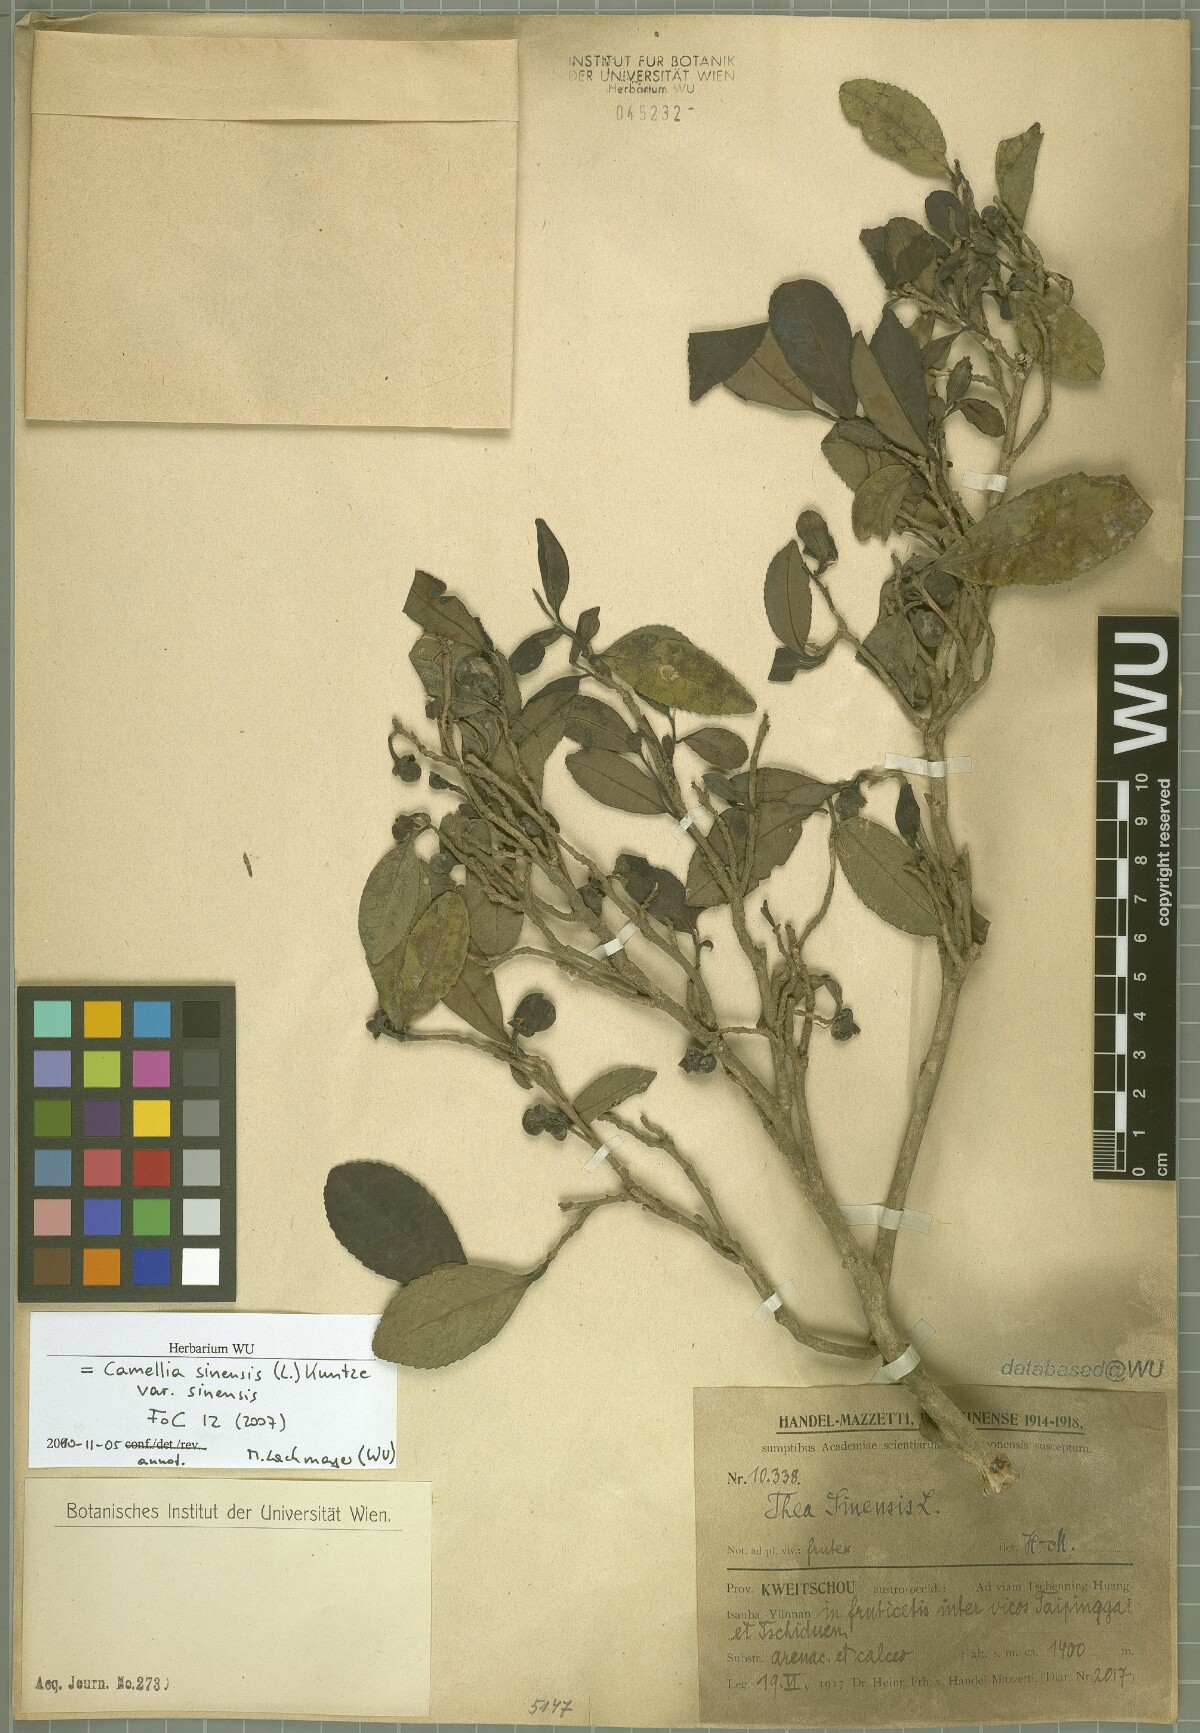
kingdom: Plantae
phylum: Tracheophyta
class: Magnoliopsida
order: Ericales
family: Theaceae
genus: Camellia
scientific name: Camellia sinensis
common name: Tea
